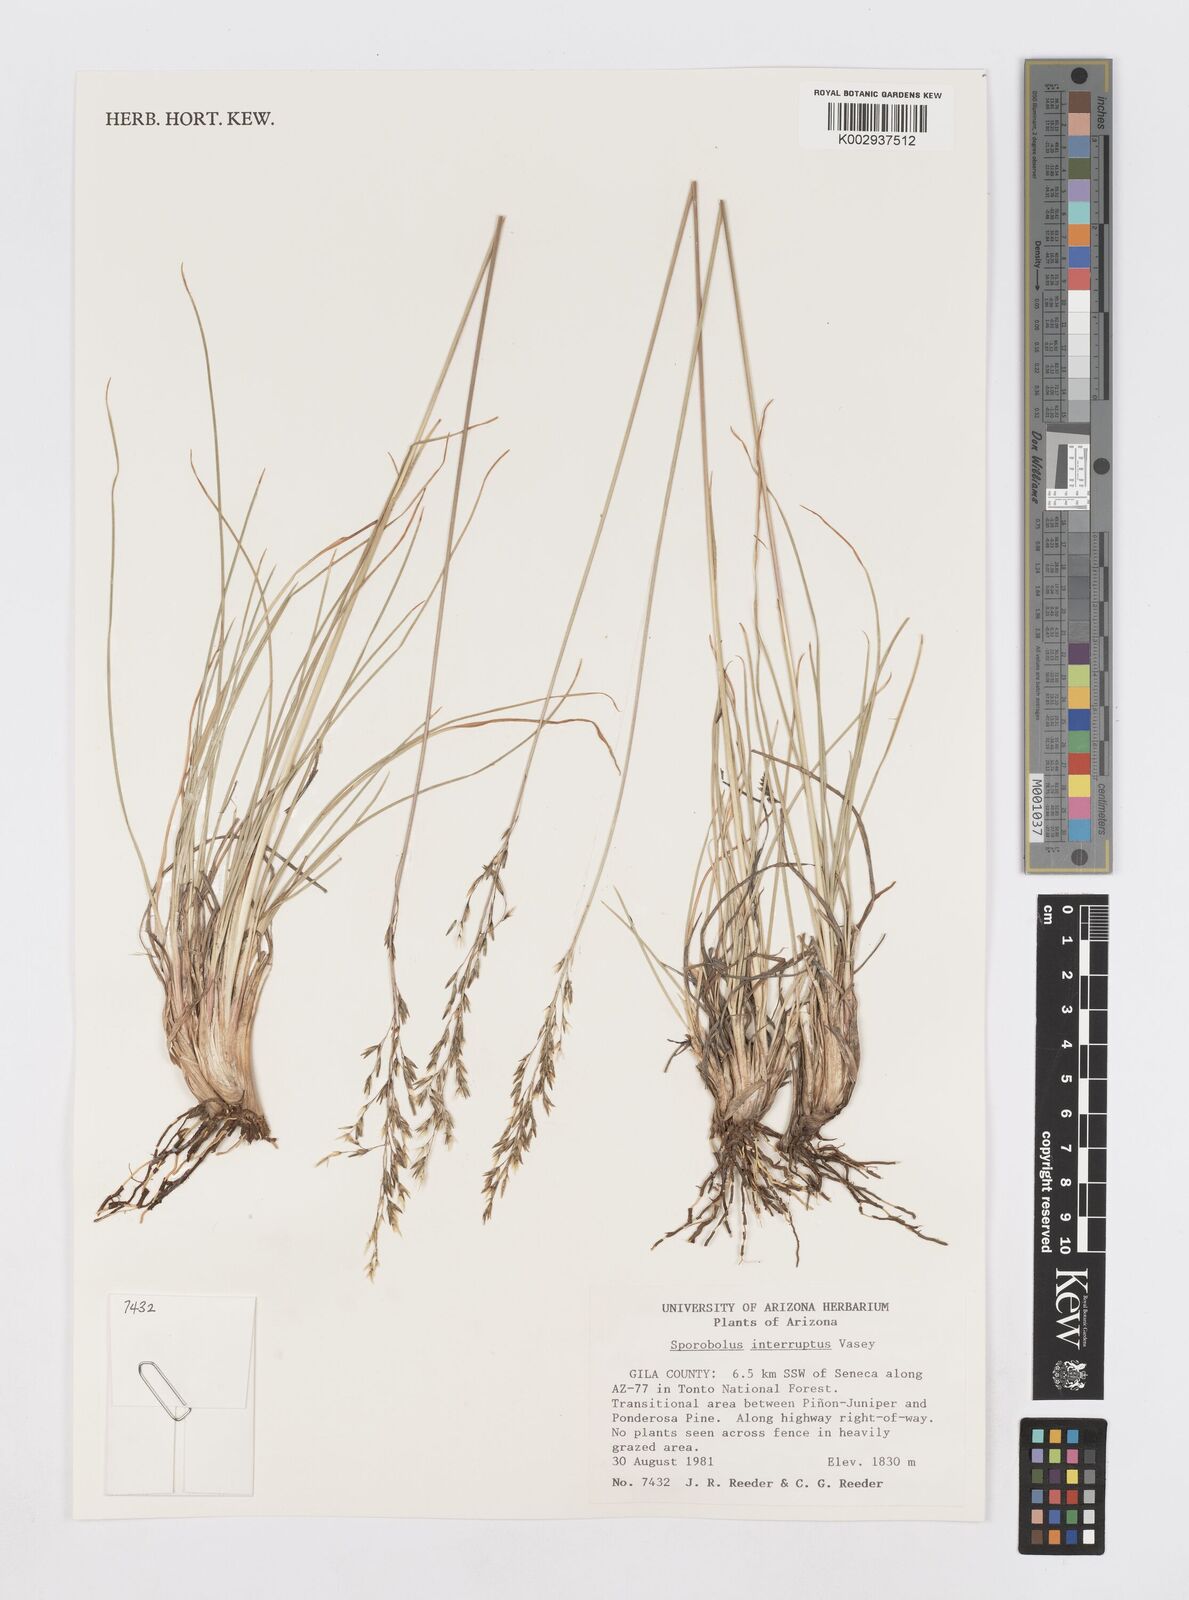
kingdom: Plantae
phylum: Tracheophyta
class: Liliopsida
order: Poales
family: Poaceae
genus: Sporobolus
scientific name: Sporobolus interruptus
